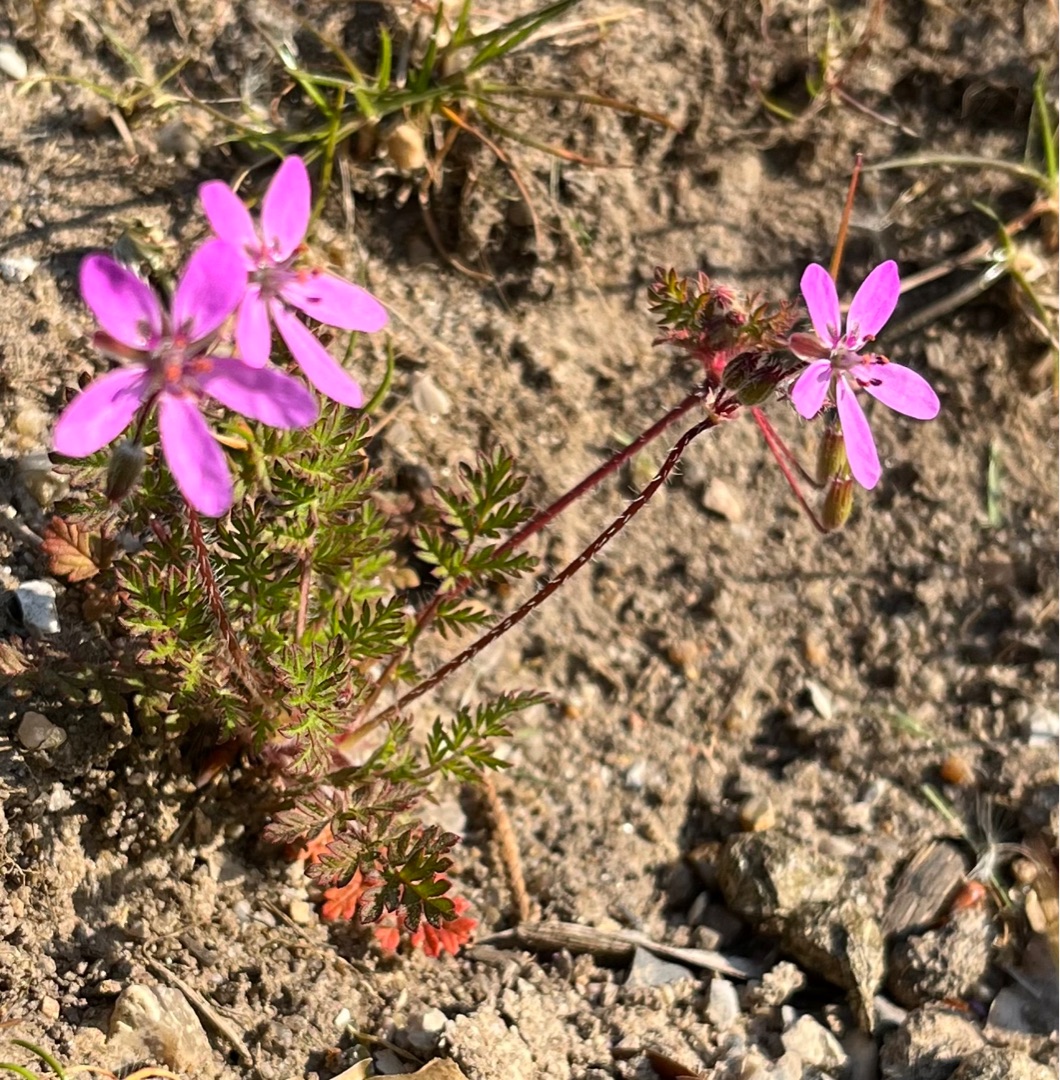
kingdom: Plantae
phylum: Tracheophyta
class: Magnoliopsida
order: Geraniales
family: Geraniaceae
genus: Erodium
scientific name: Erodium cicutarium
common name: Hejrenæb
